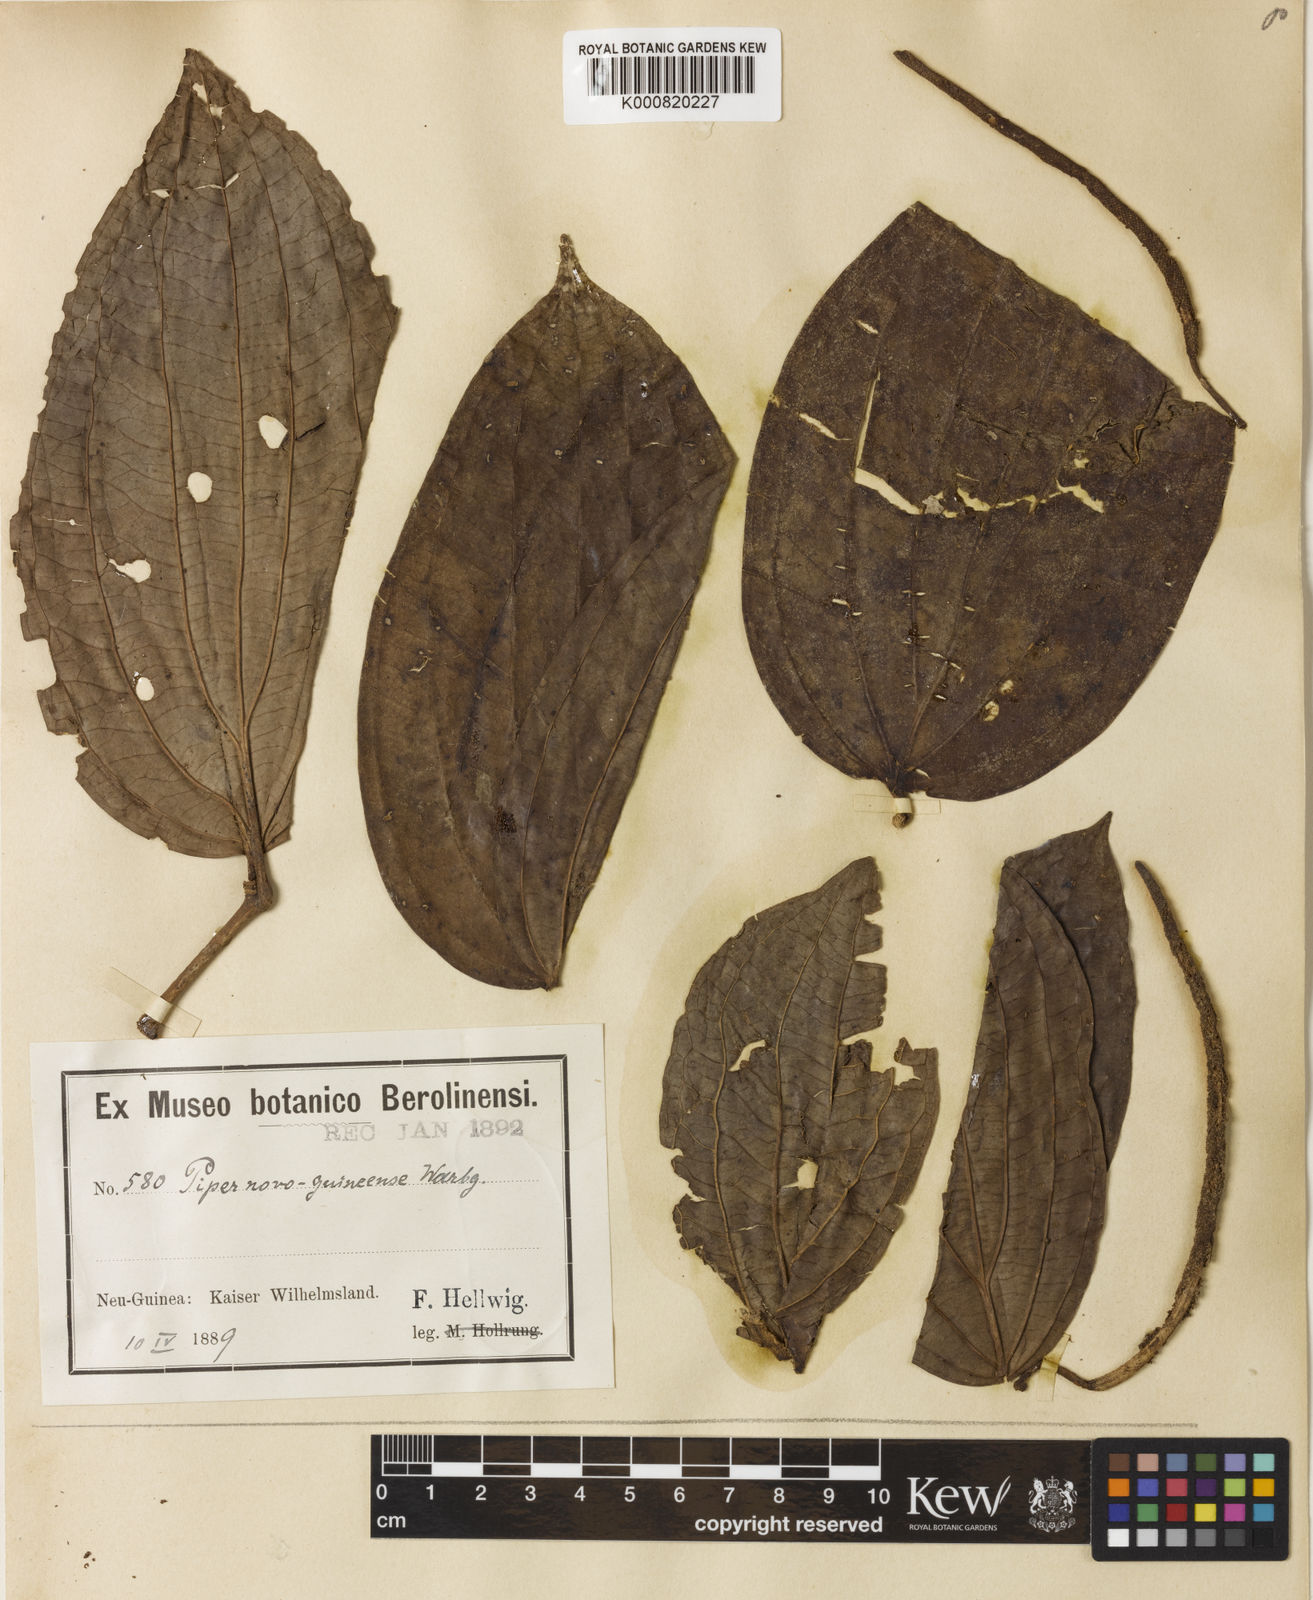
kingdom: Plantae
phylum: Tracheophyta
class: Magnoliopsida
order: Piperales
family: Piperaceae
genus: Piper
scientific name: Piper macropiper
